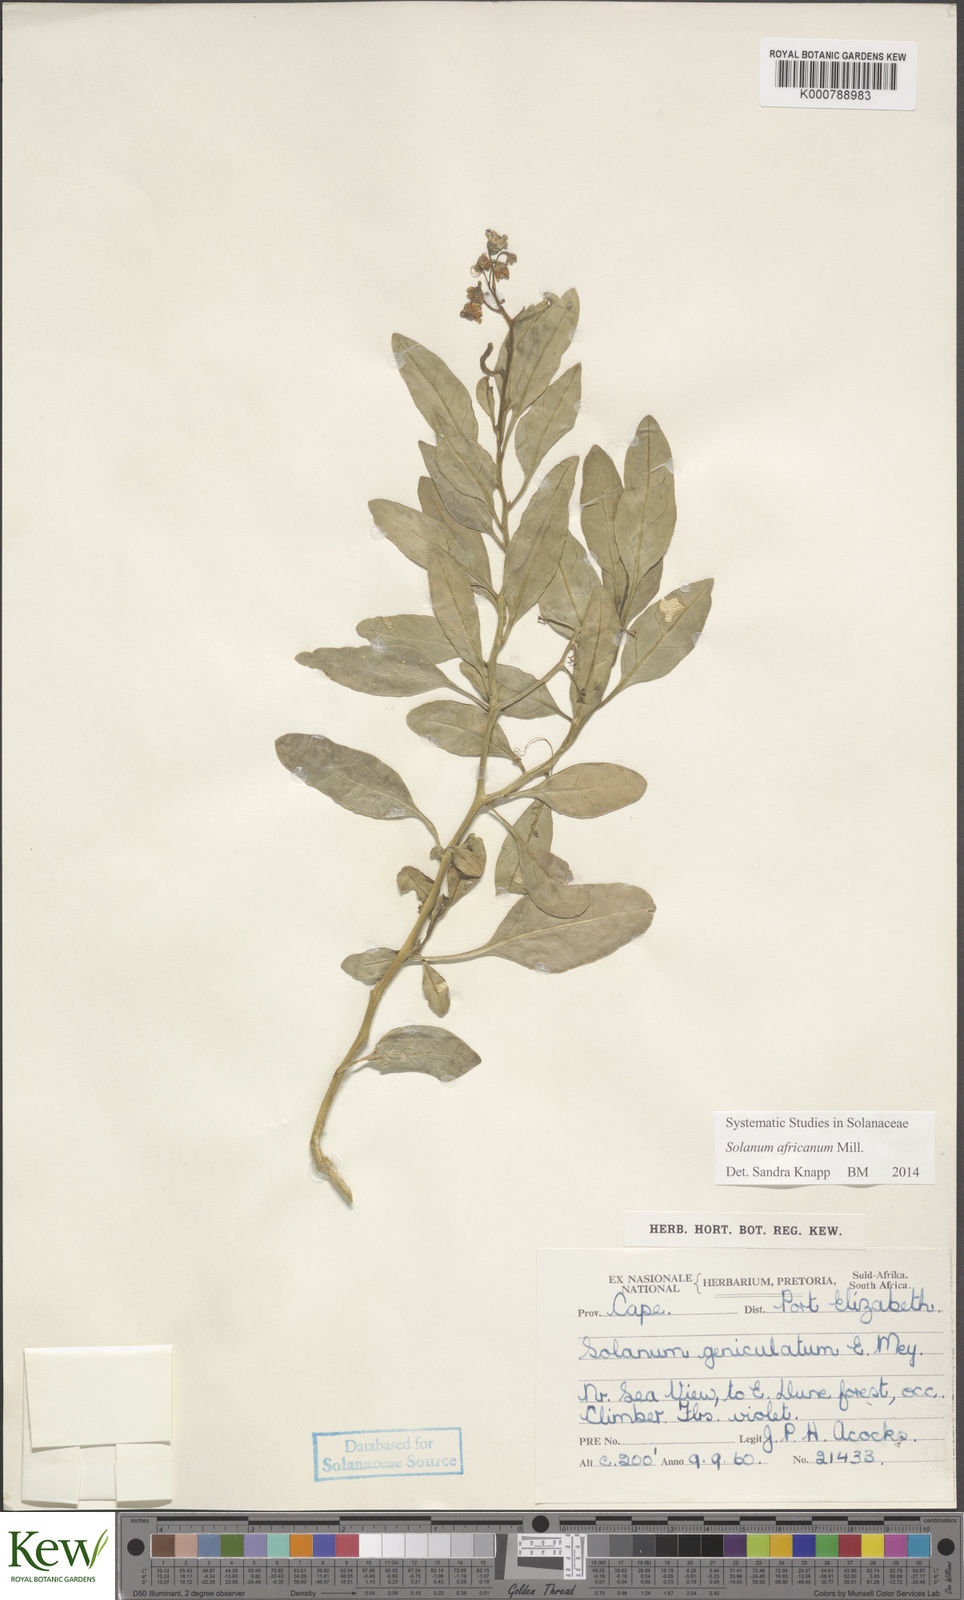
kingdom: Plantae
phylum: Tracheophyta
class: Magnoliopsida
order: Solanales
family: Solanaceae
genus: Solanum
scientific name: Solanum africanum
